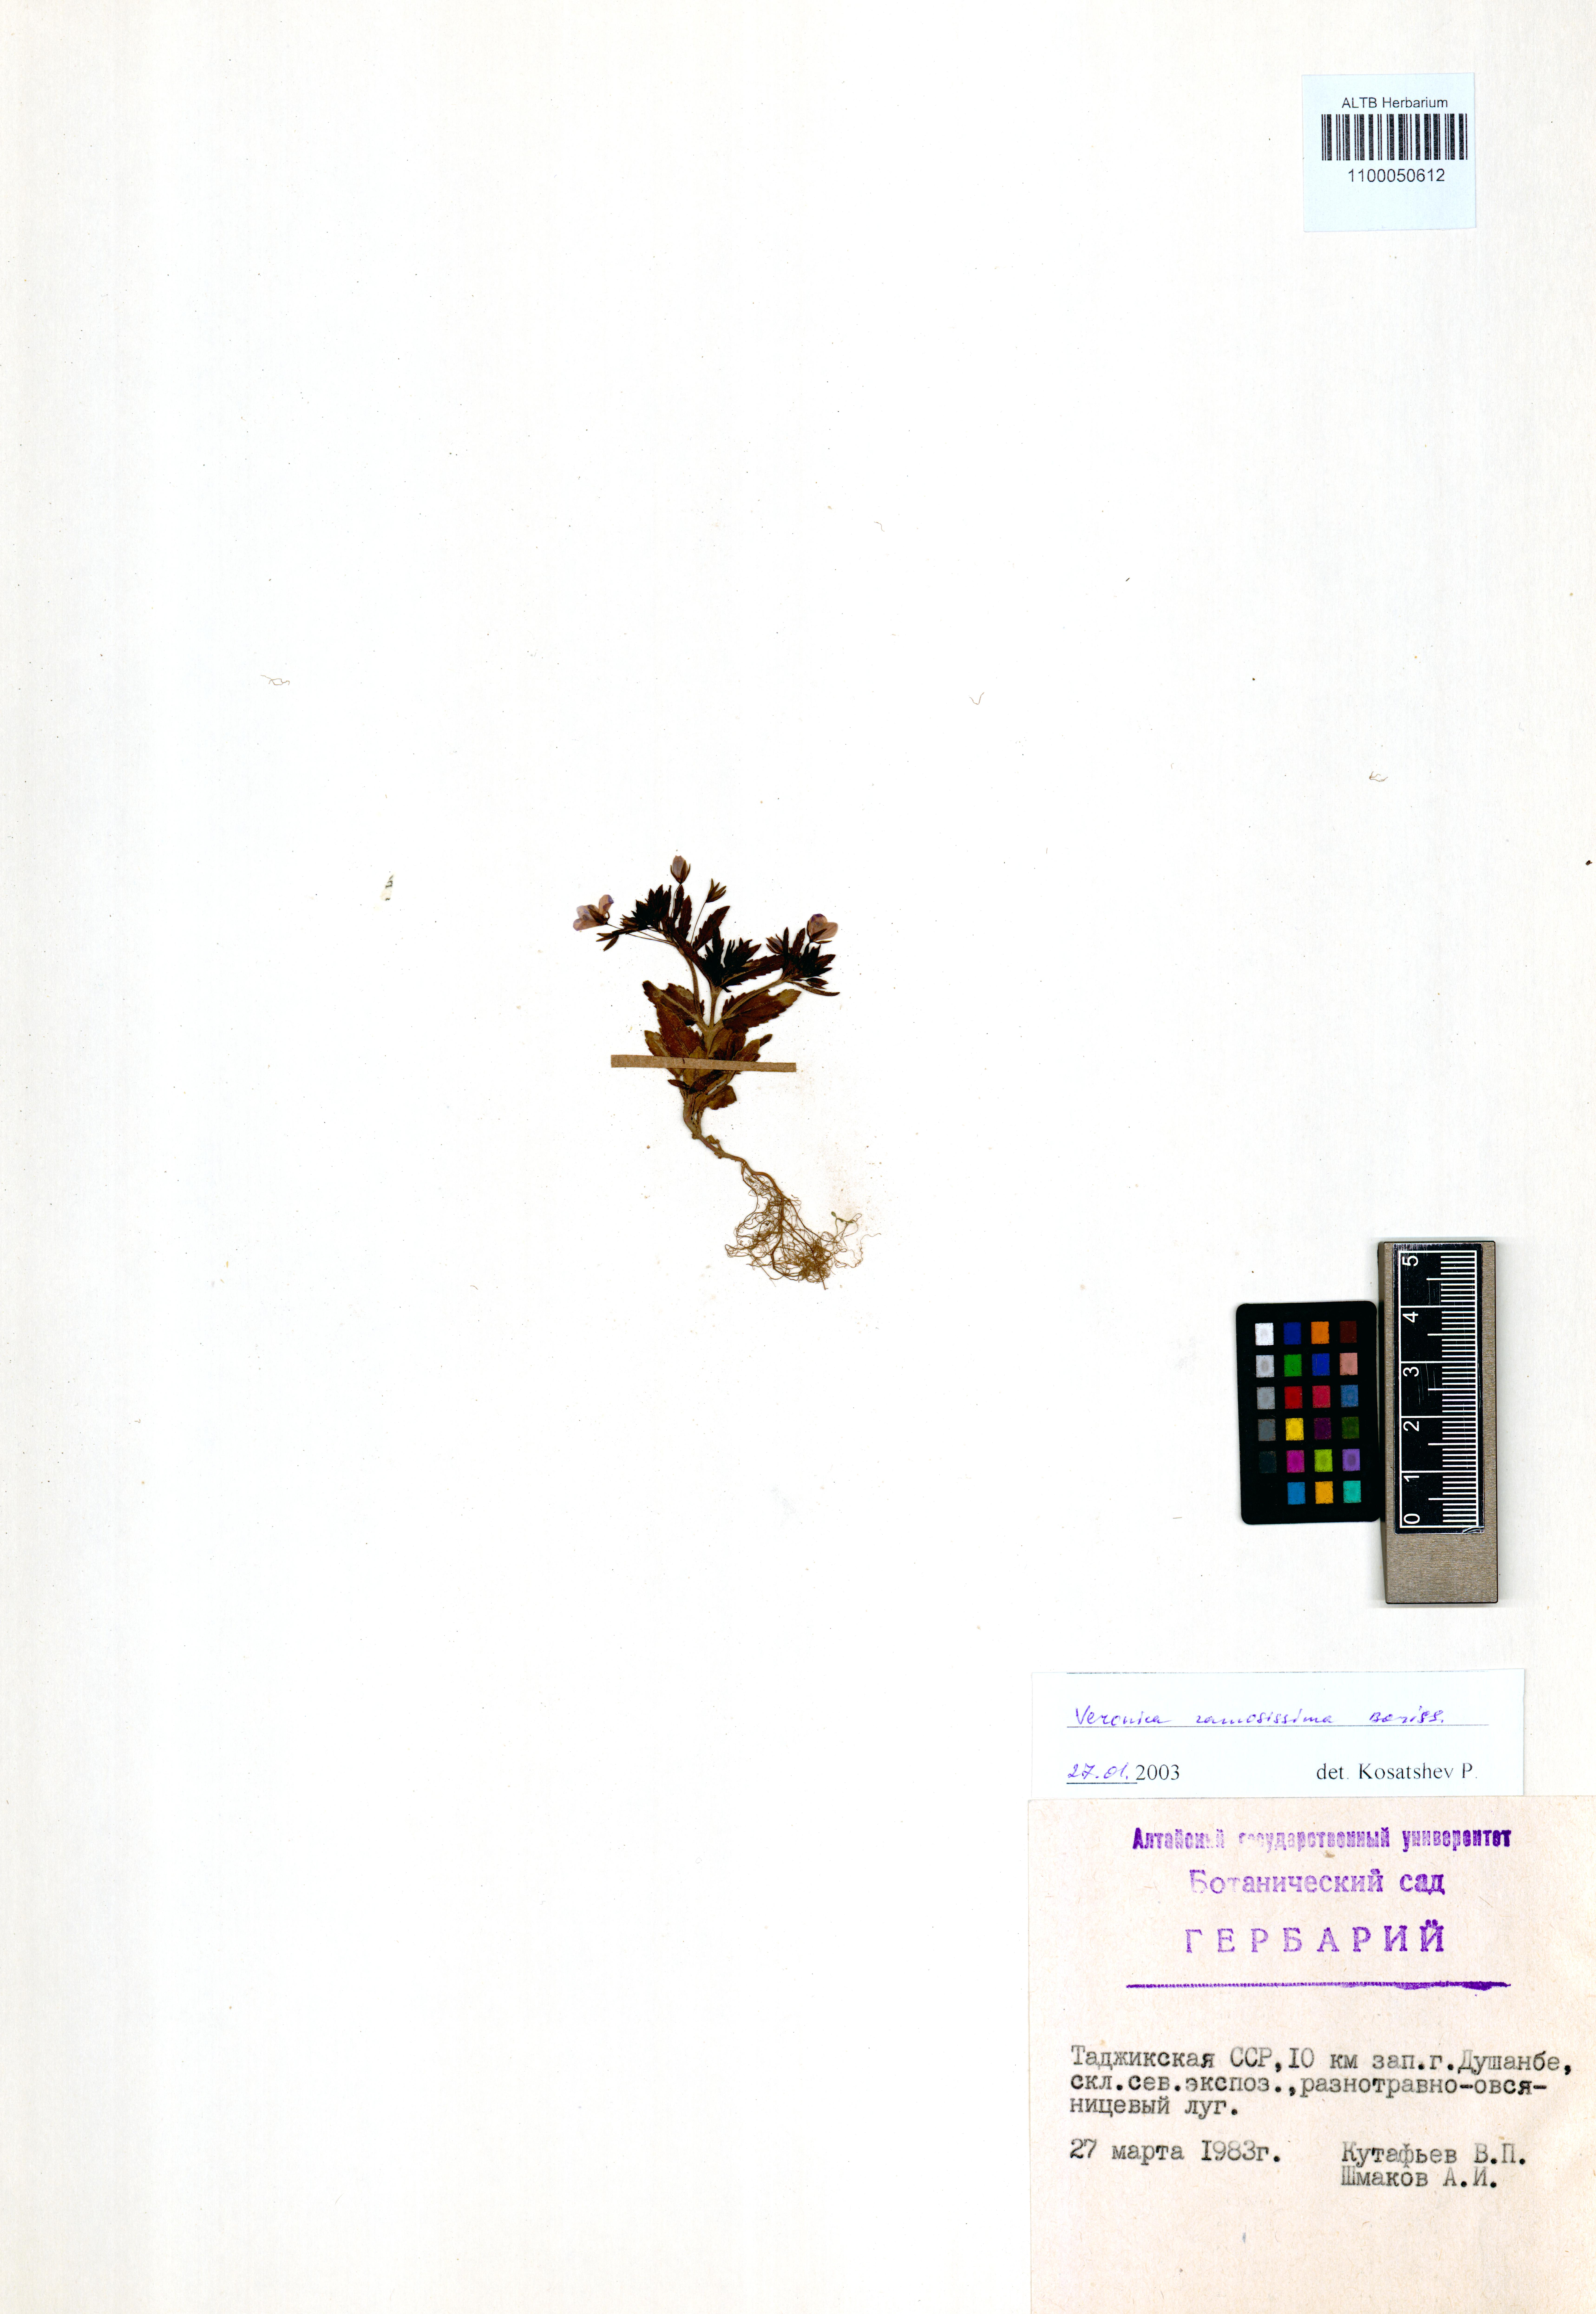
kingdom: Plantae
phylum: Tracheophyta
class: Magnoliopsida
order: Lamiales
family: Plantaginaceae
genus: Veronica
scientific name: Veronica ramosissima
